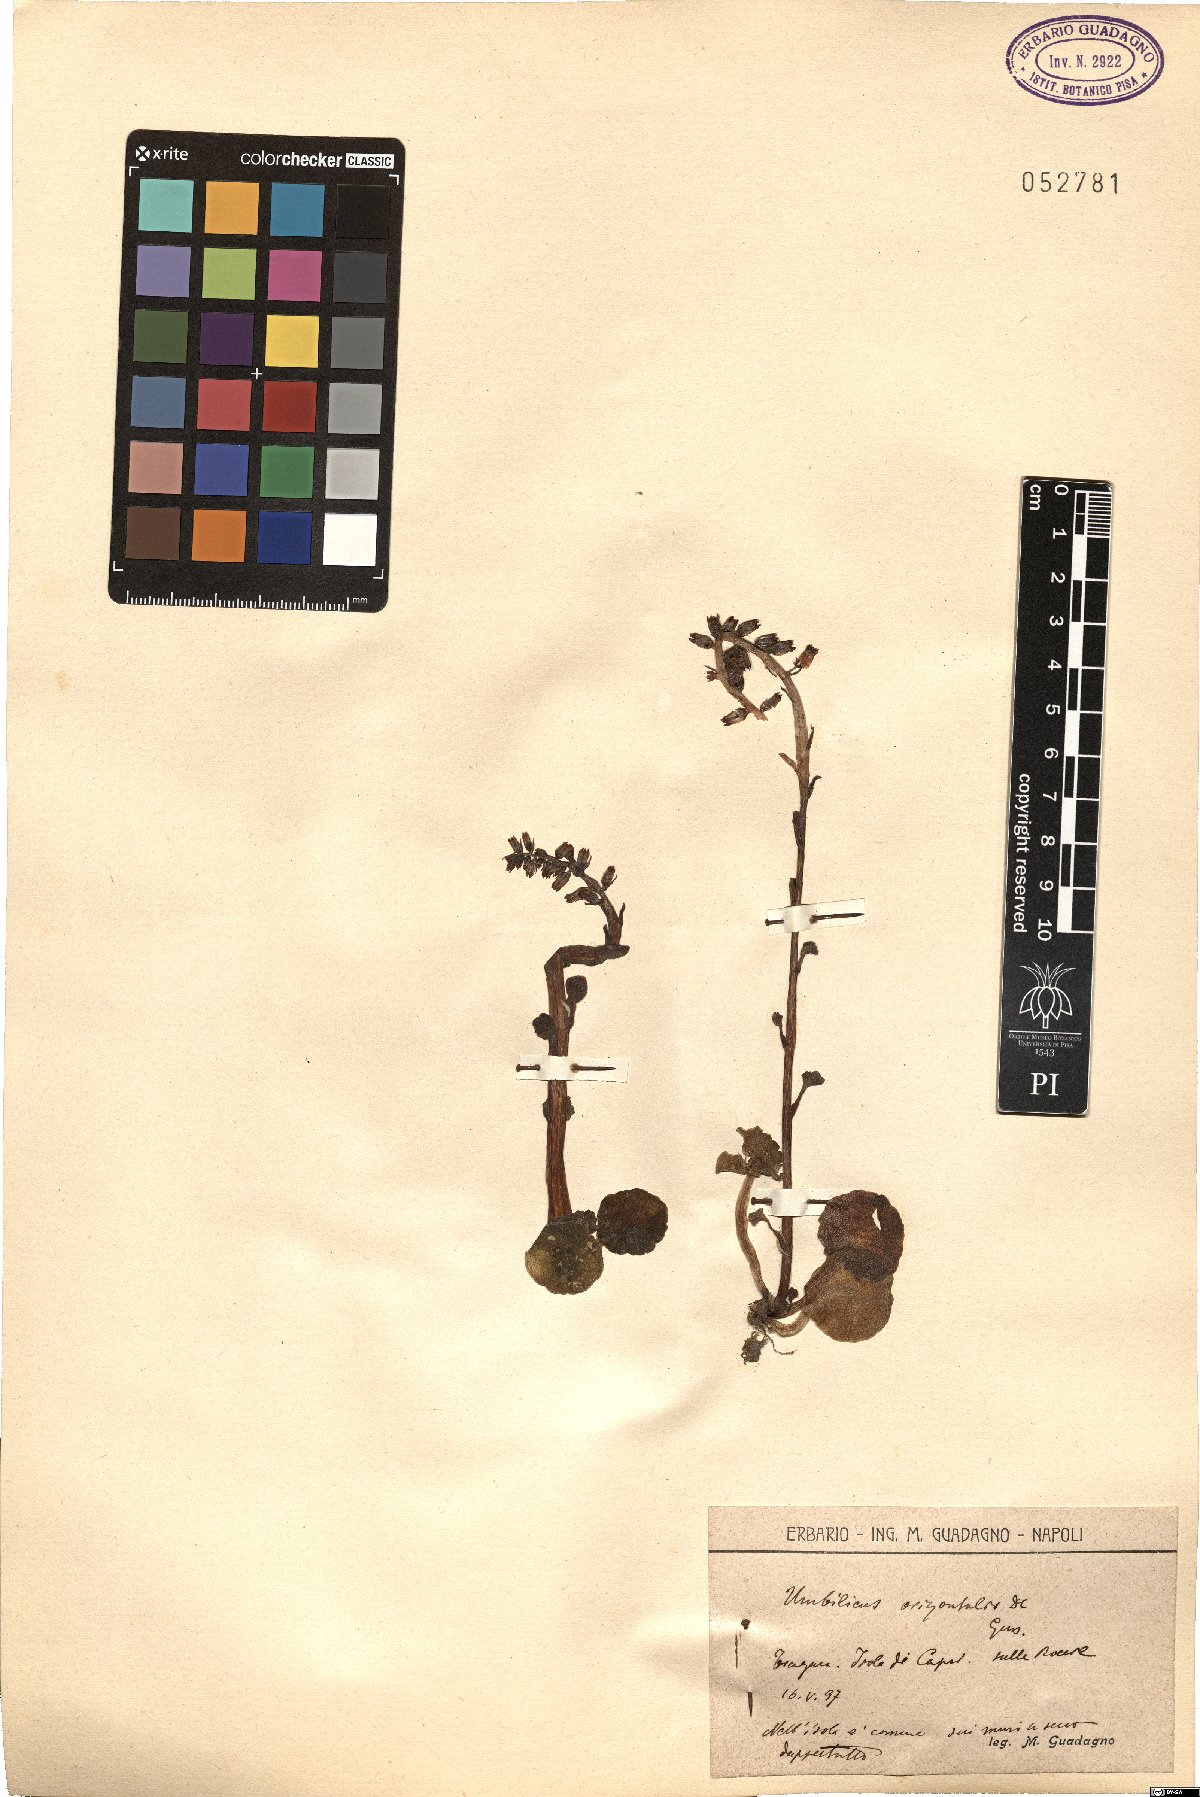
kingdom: Plantae
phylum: Tracheophyta
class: Magnoliopsida
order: Saxifragales
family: Crassulaceae
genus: Umbilicus
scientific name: Umbilicus horizontalis
